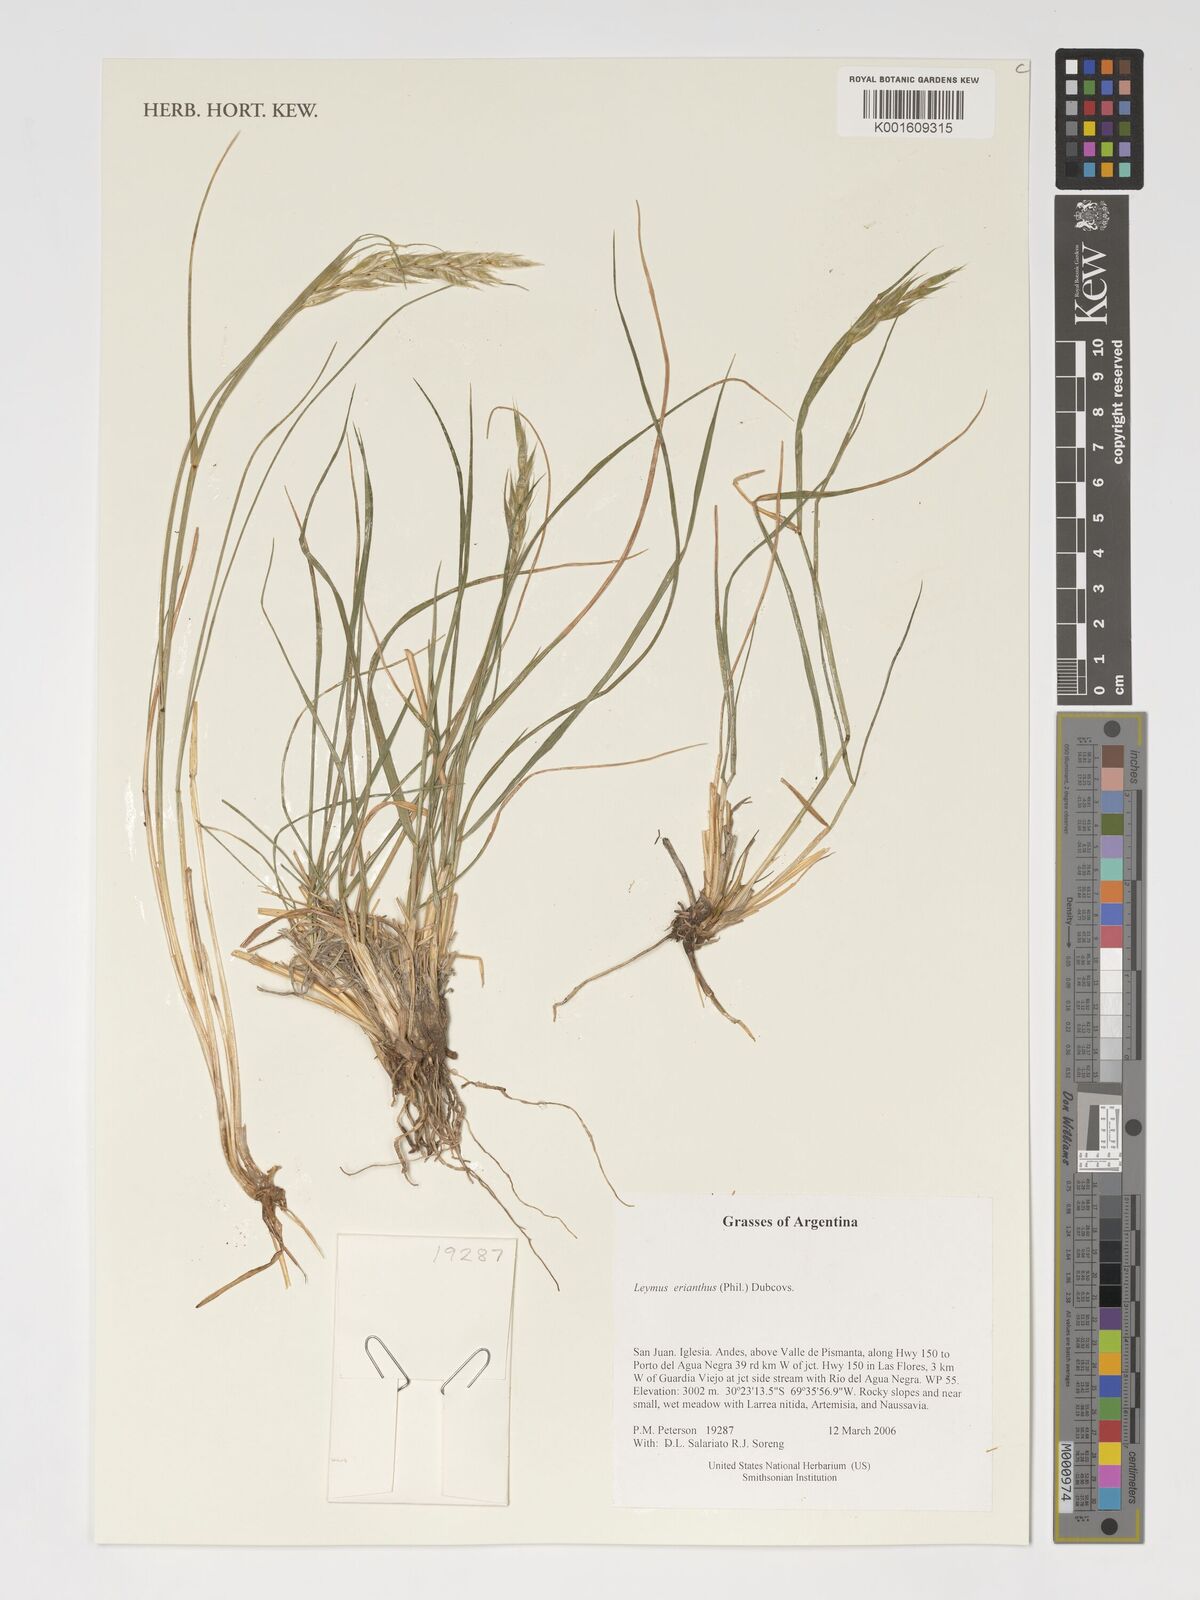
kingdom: Plantae
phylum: Tracheophyta
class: Liliopsida
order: Poales
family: Poaceae
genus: Leymus
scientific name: Leymus erianthus
